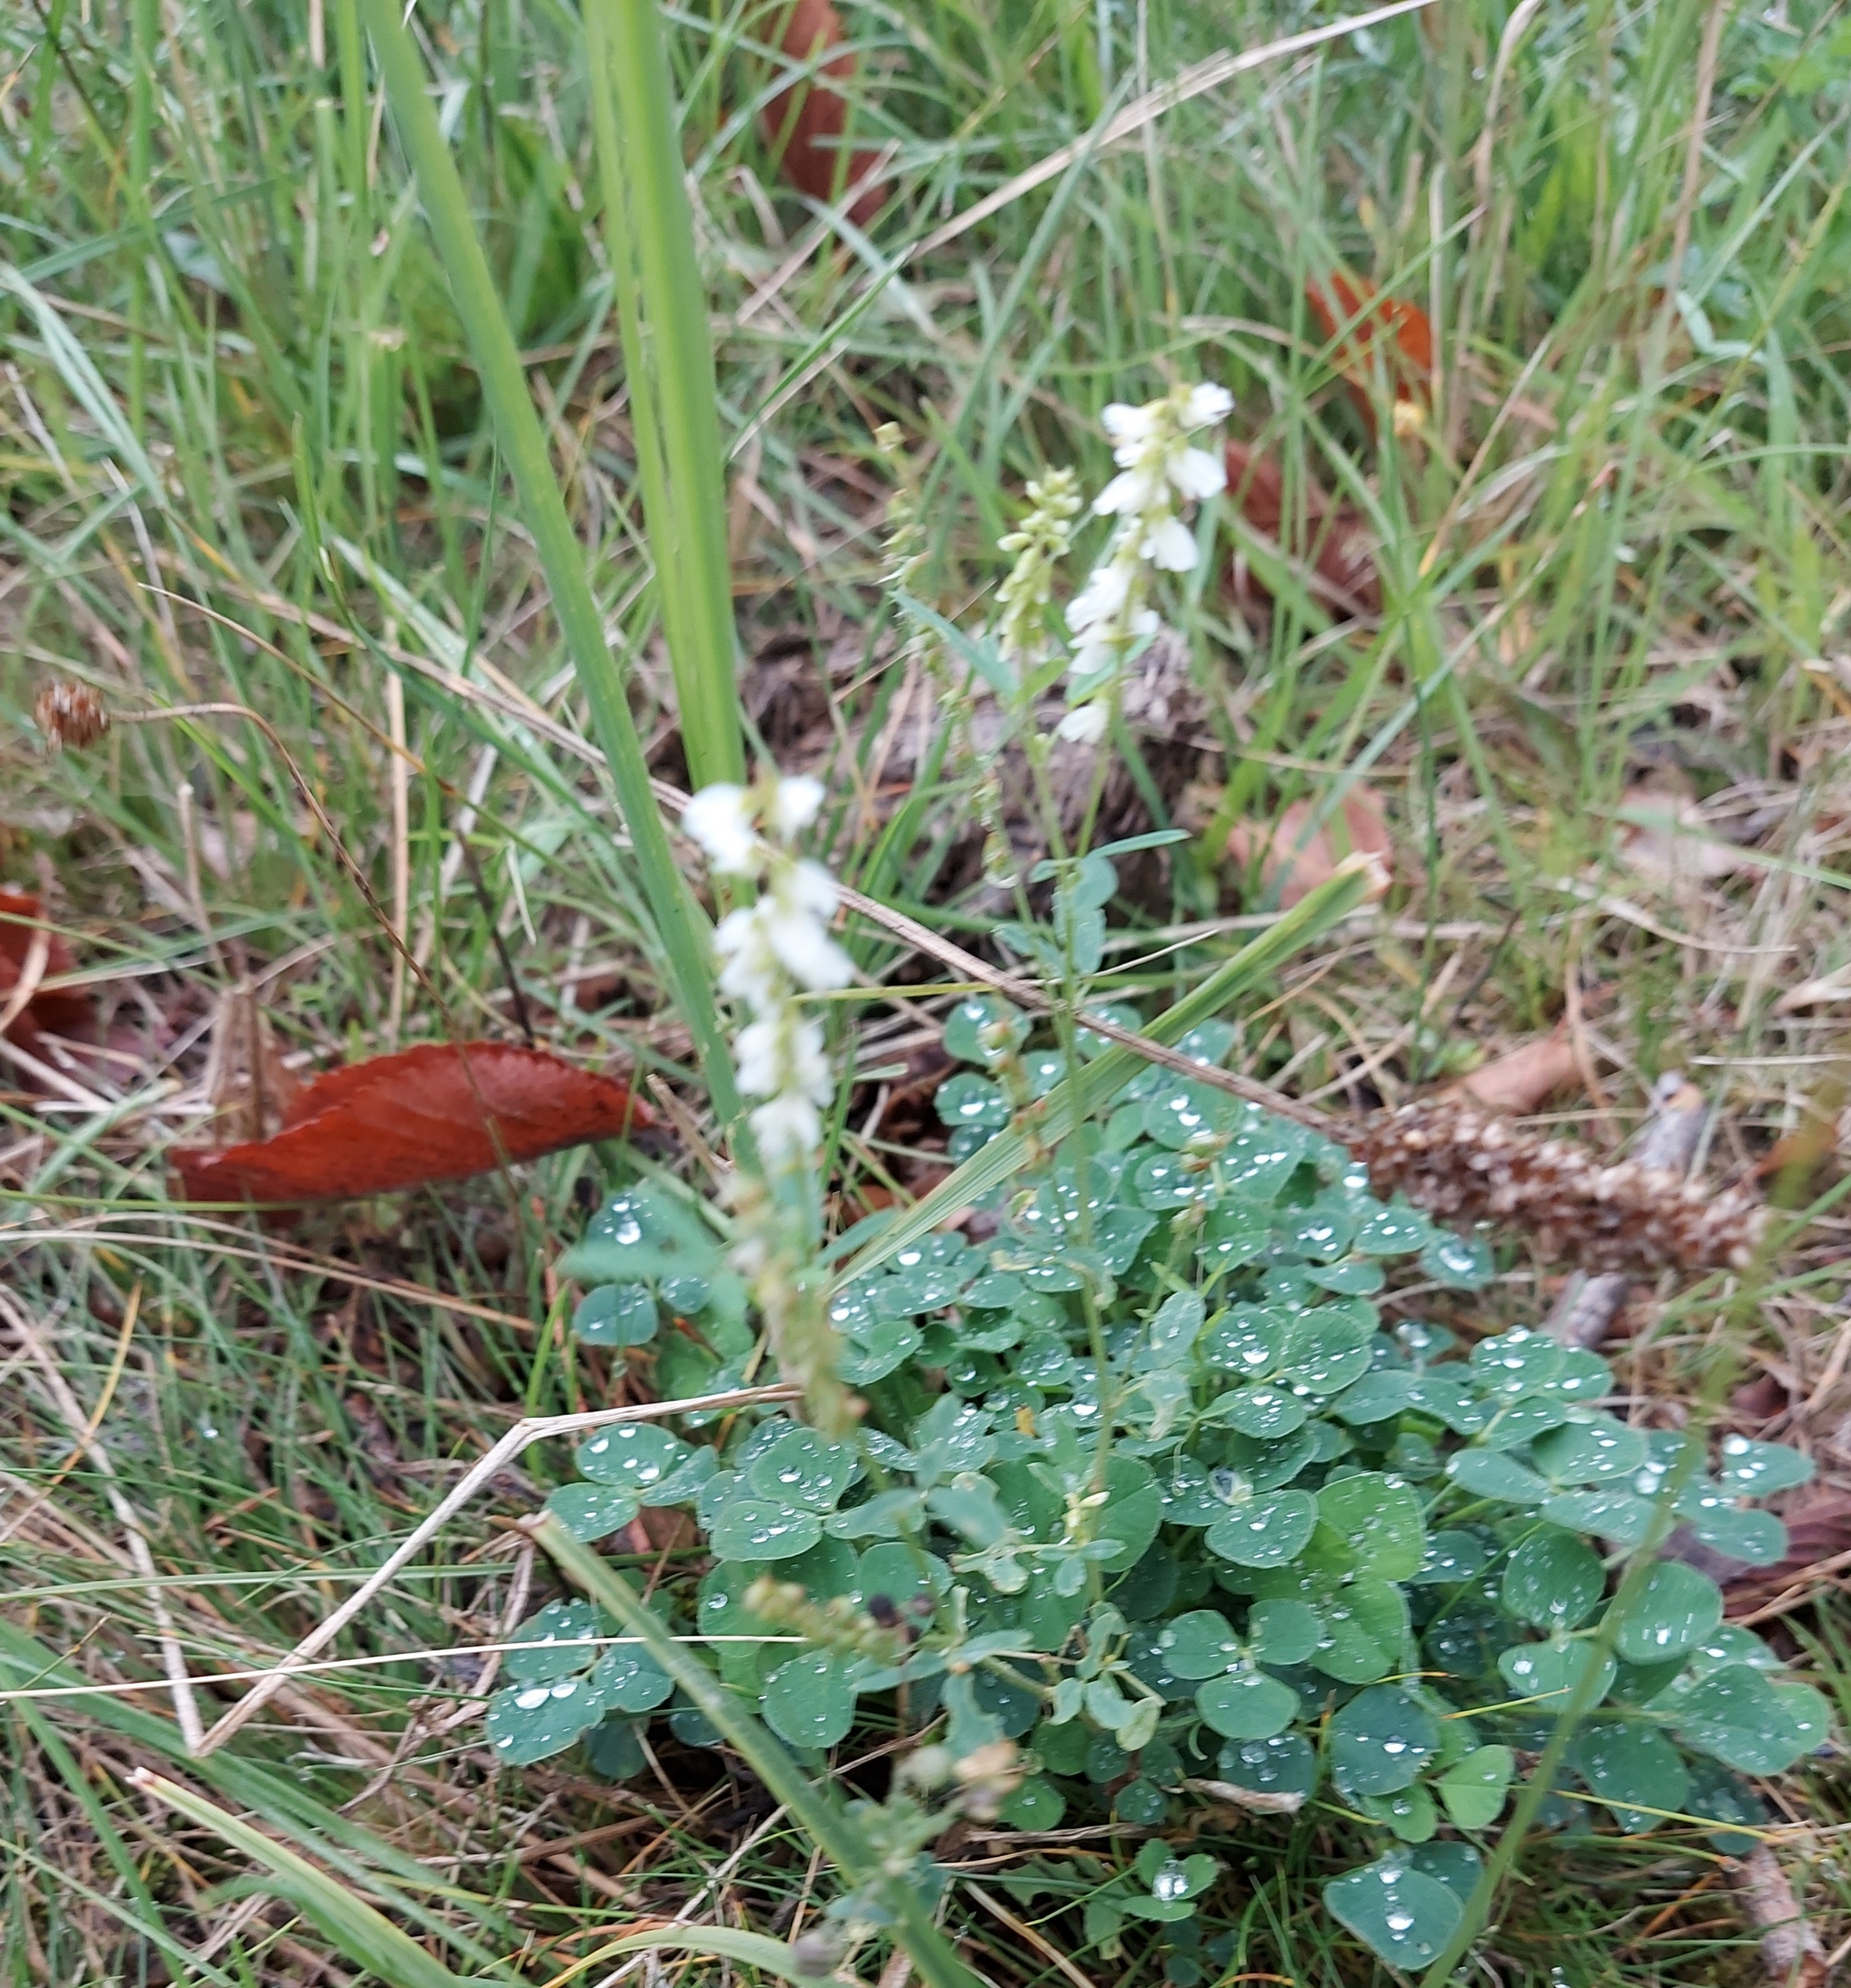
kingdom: Plantae
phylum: Tracheophyta
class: Magnoliopsida
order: Fabales
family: Fabaceae
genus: Melilotus
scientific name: Melilotus albus
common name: Hvid stenkløver
